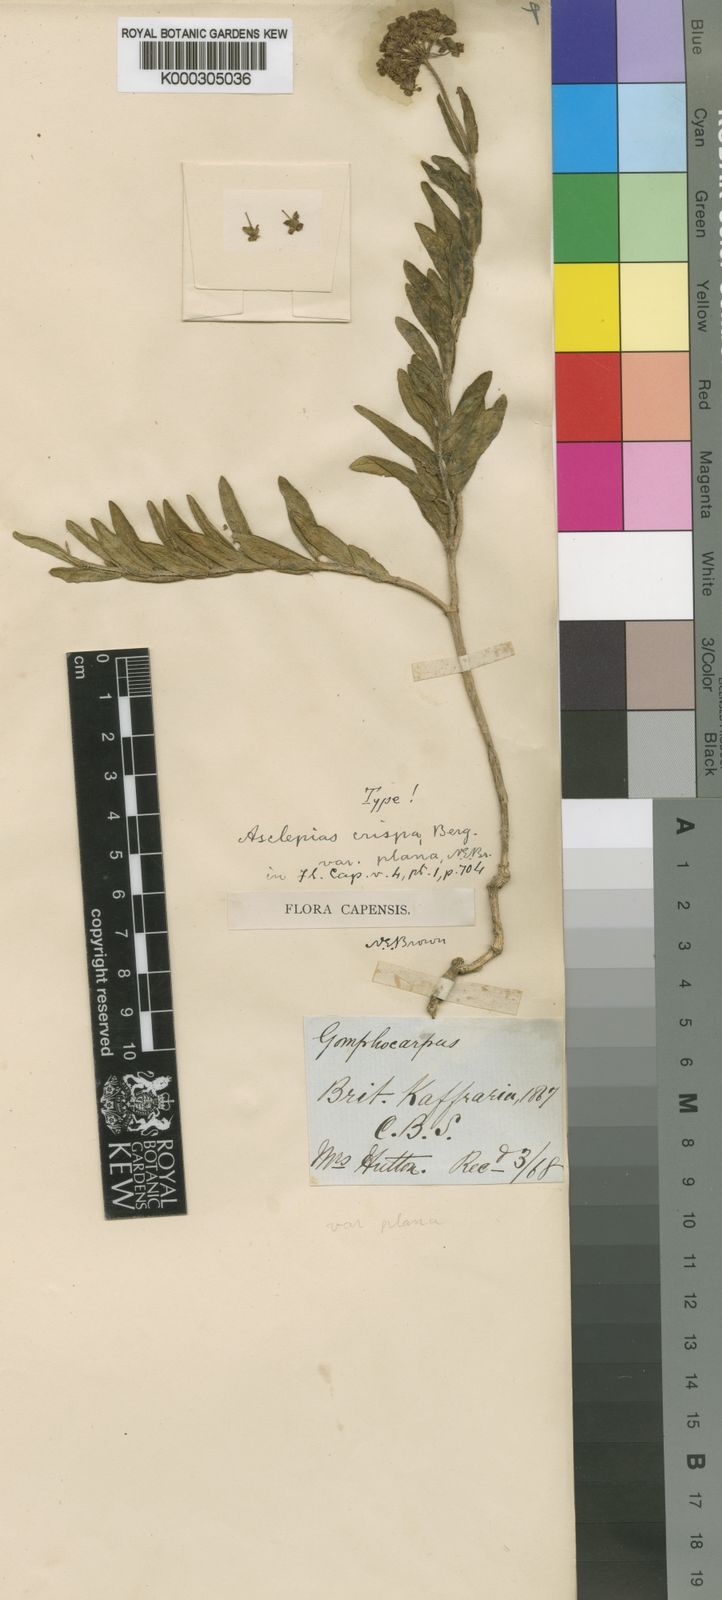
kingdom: Plantae
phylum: Tracheophyta
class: Magnoliopsida
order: Gentianales
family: Apocynaceae
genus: Asclepias
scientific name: Asclepias crispa
